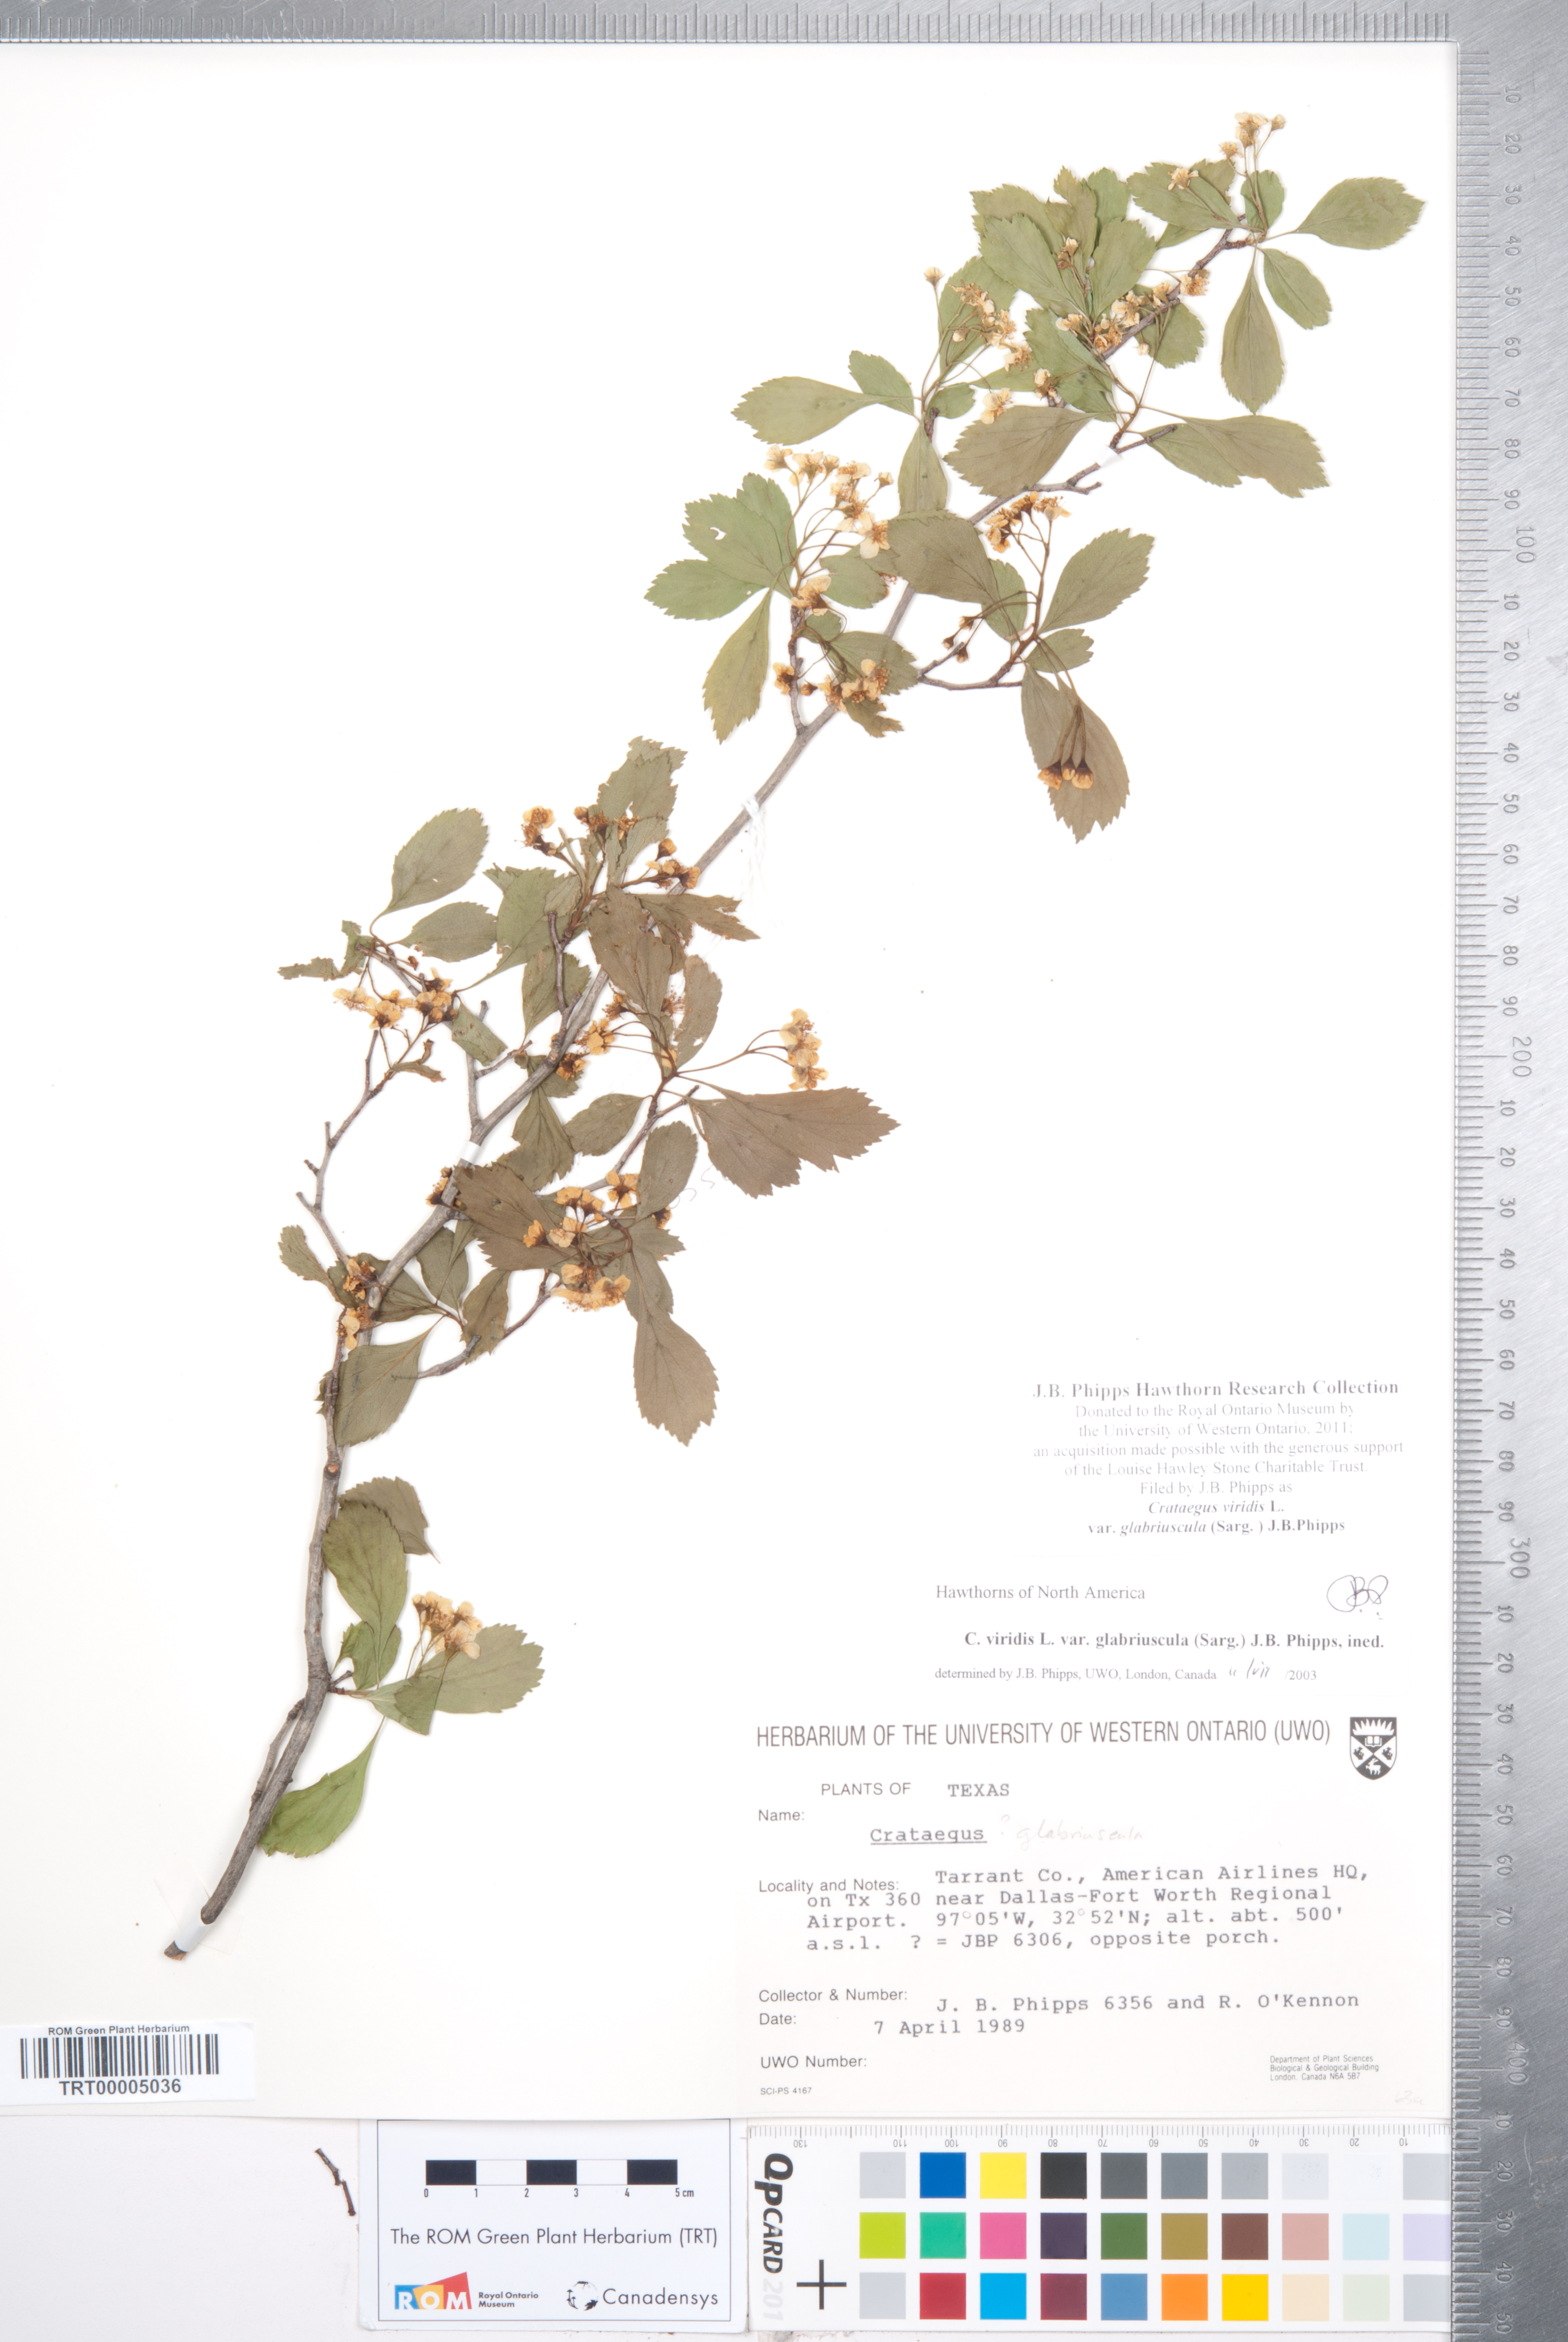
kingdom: Plantae
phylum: Tracheophyta
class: Magnoliopsida
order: Rosales
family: Rosaceae
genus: Crataegus
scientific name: Crataegus viridis
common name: Southernthorn
